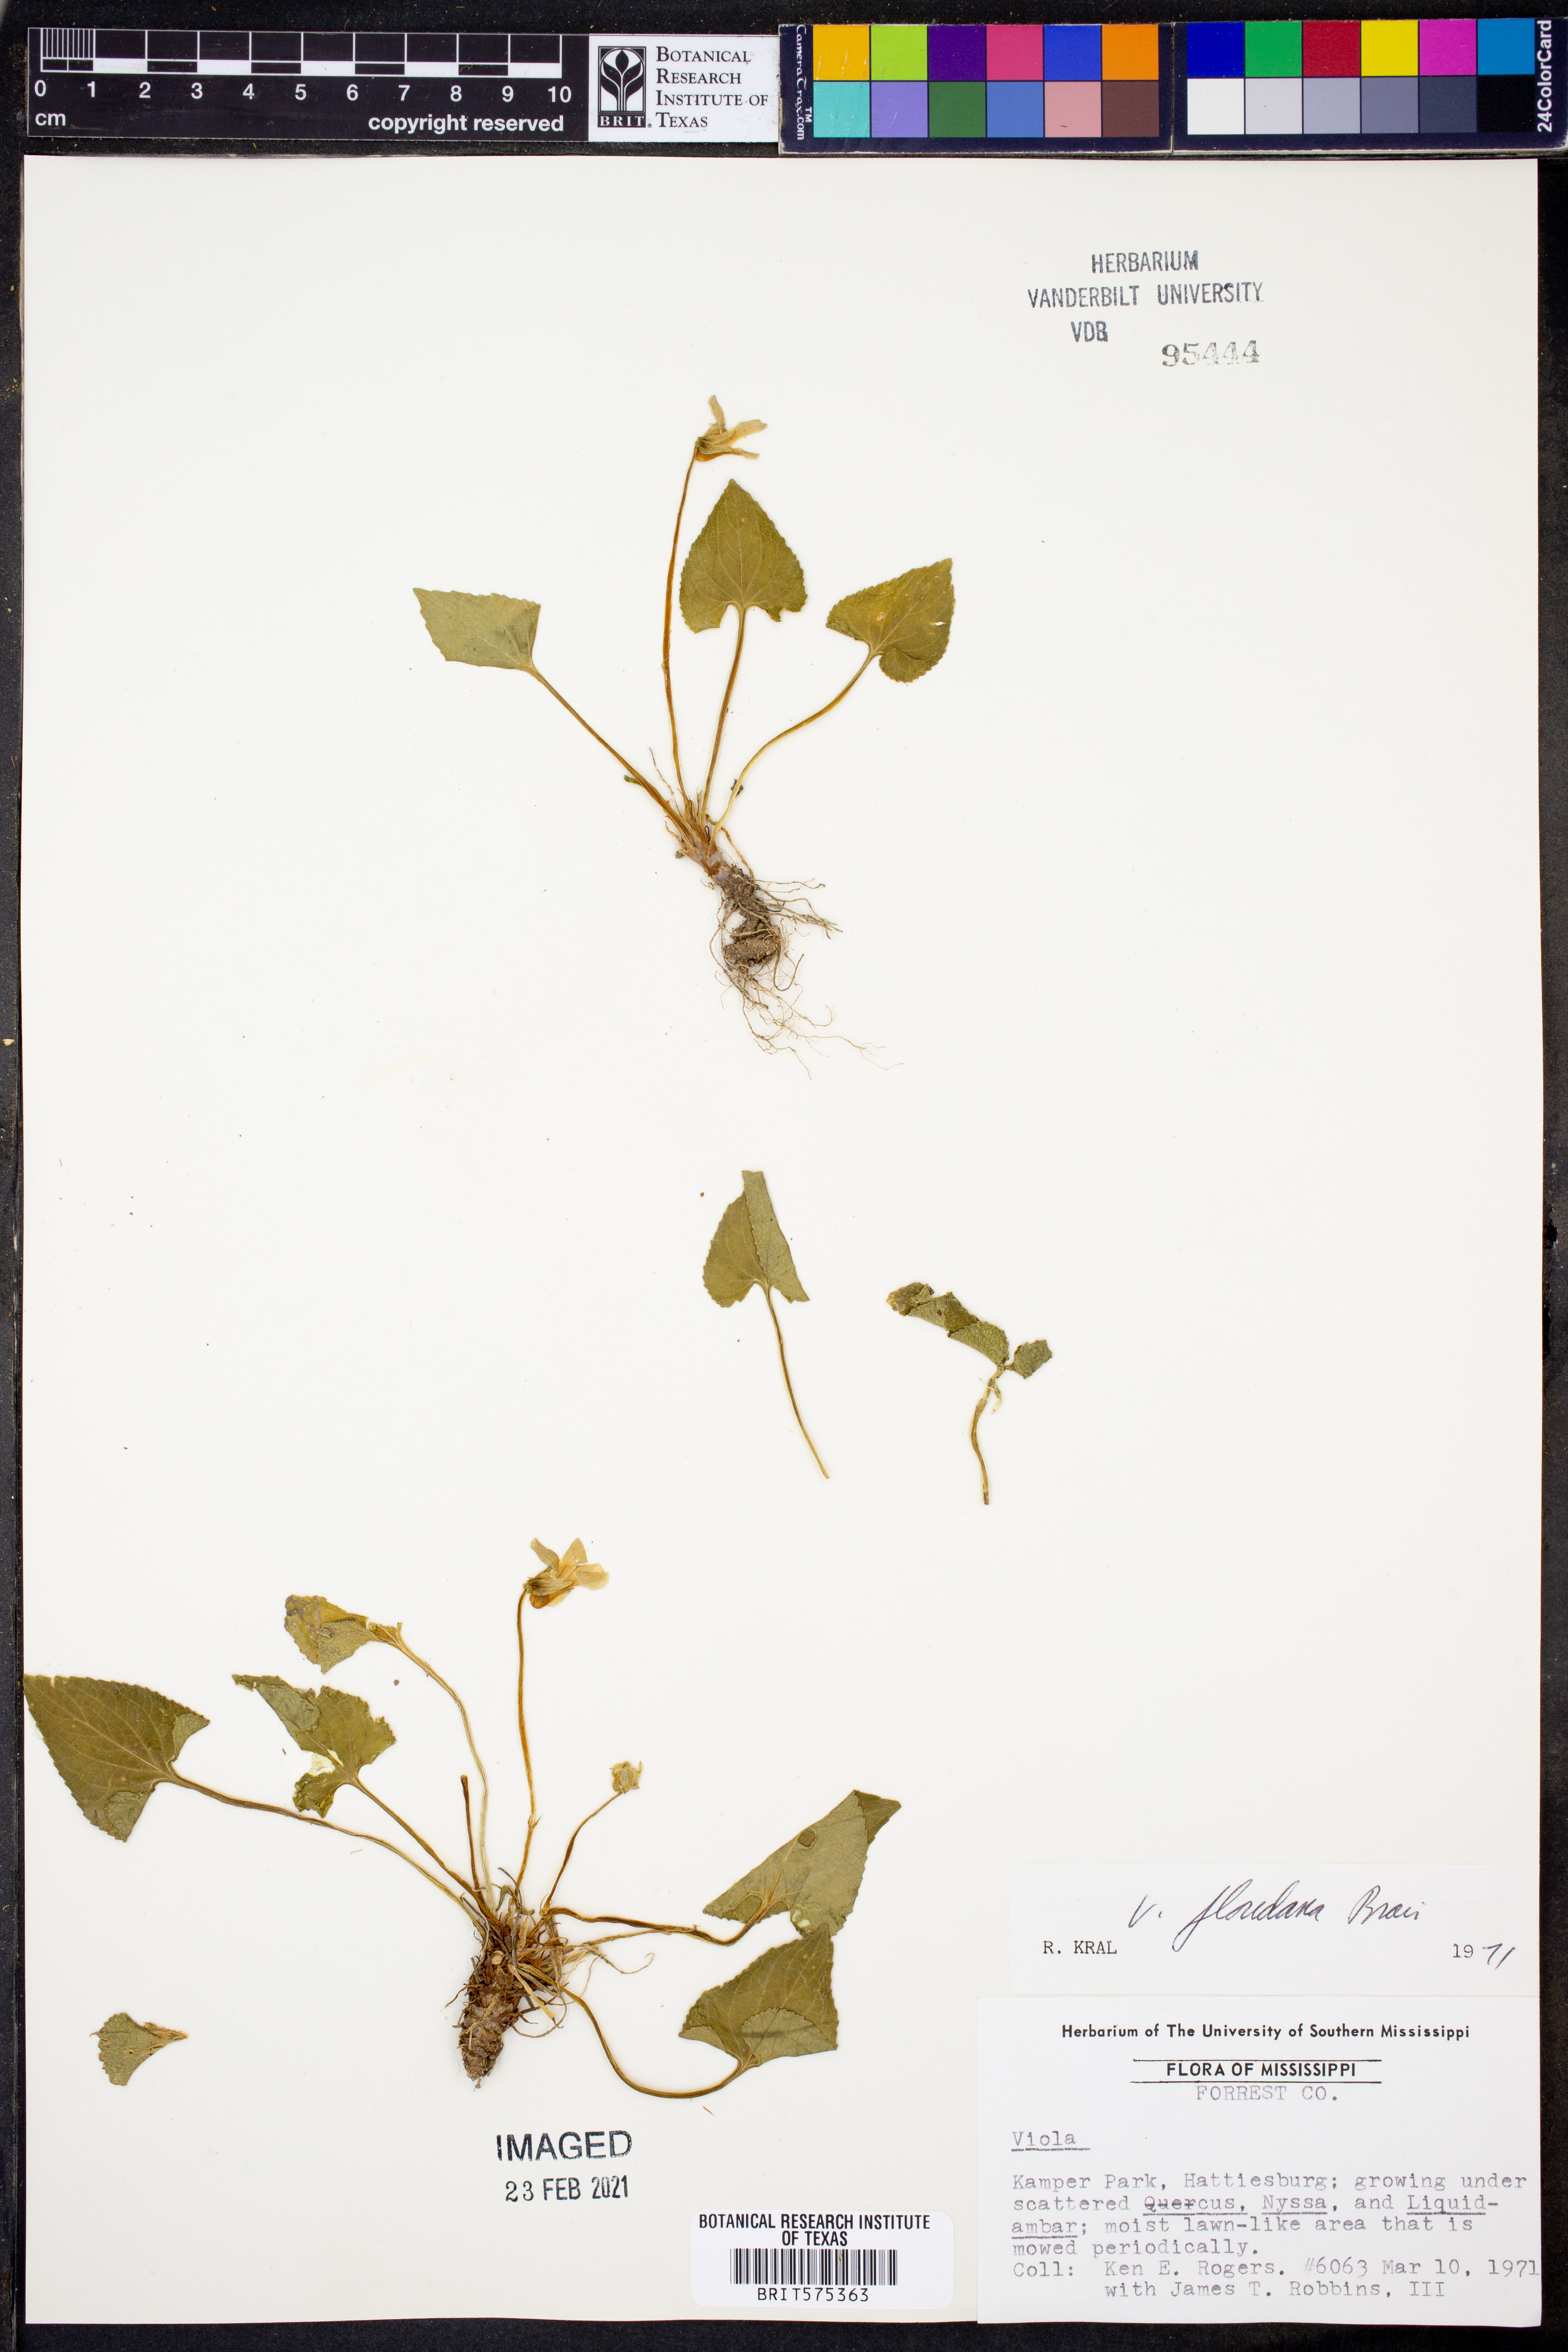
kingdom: Plantae
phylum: Tracheophyta
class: Magnoliopsida
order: Malpighiales
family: Violaceae
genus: Viola
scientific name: Viola floridana
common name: Florida violet
